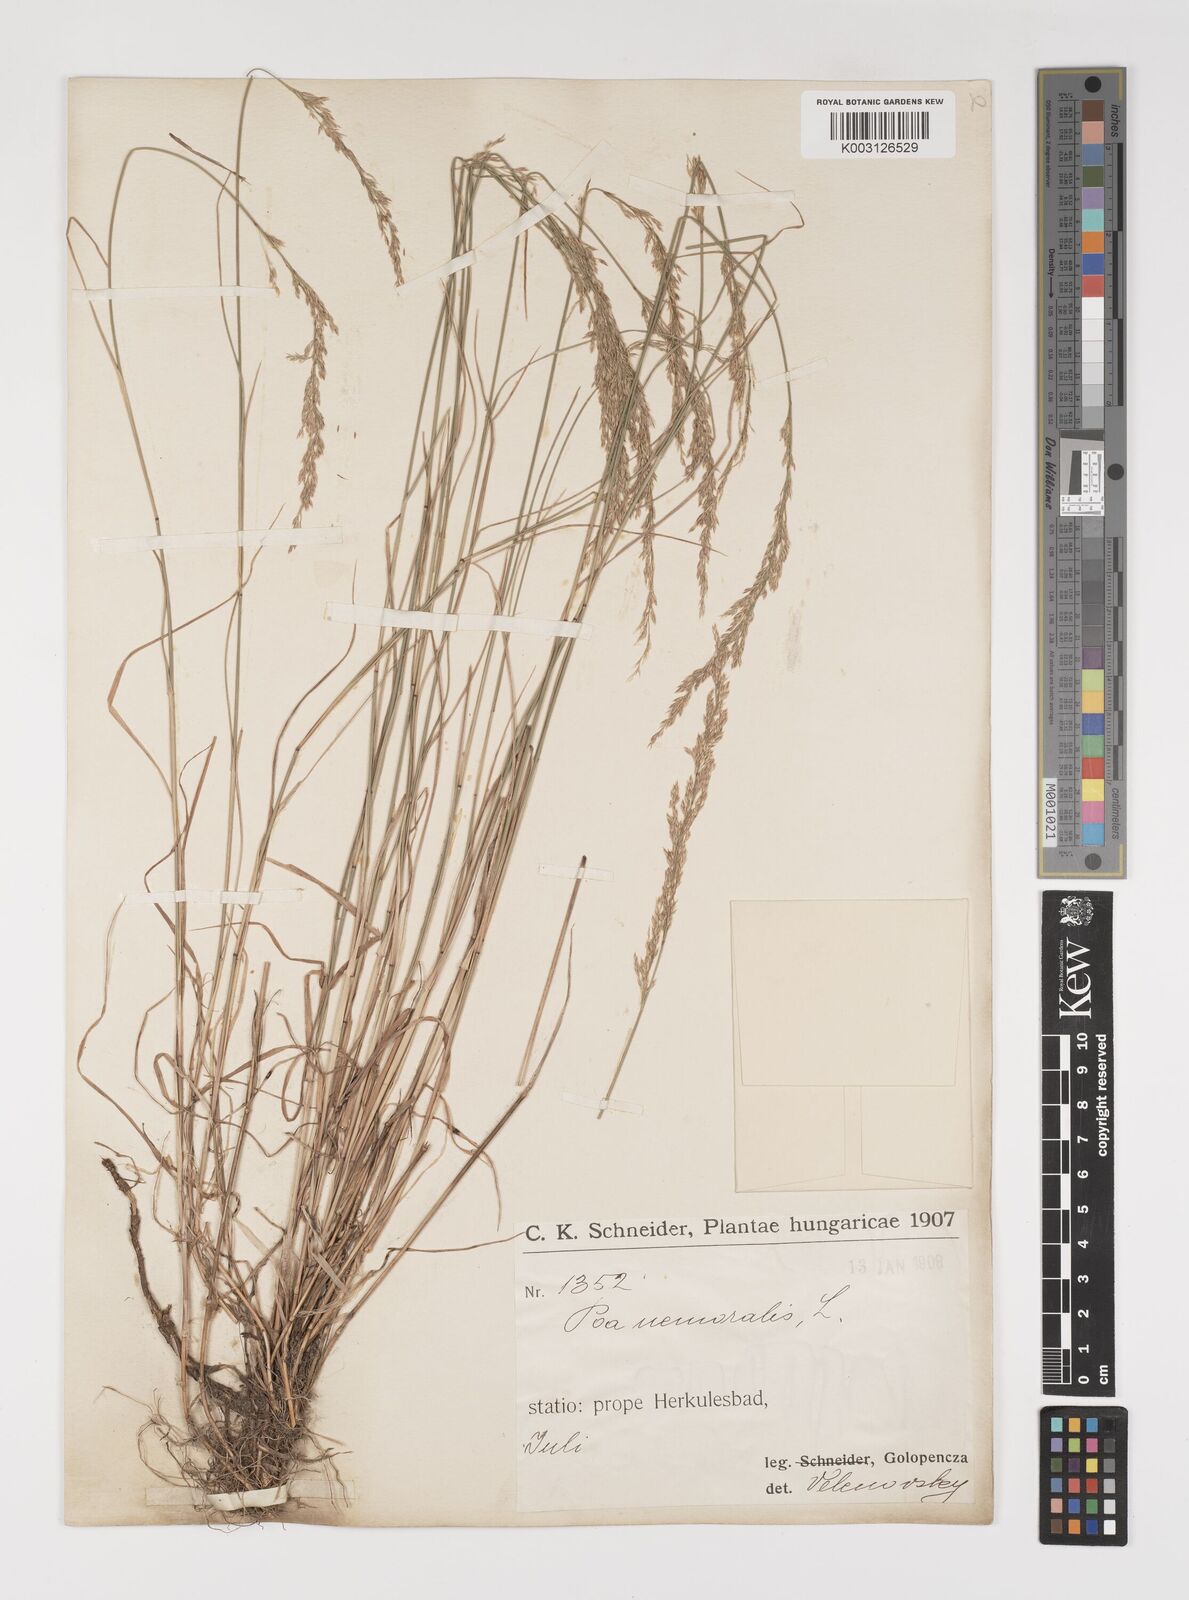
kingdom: Plantae
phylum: Tracheophyta
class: Liliopsida
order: Poales
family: Poaceae
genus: Poa
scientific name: Poa nemoralis
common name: Wood bluegrass
